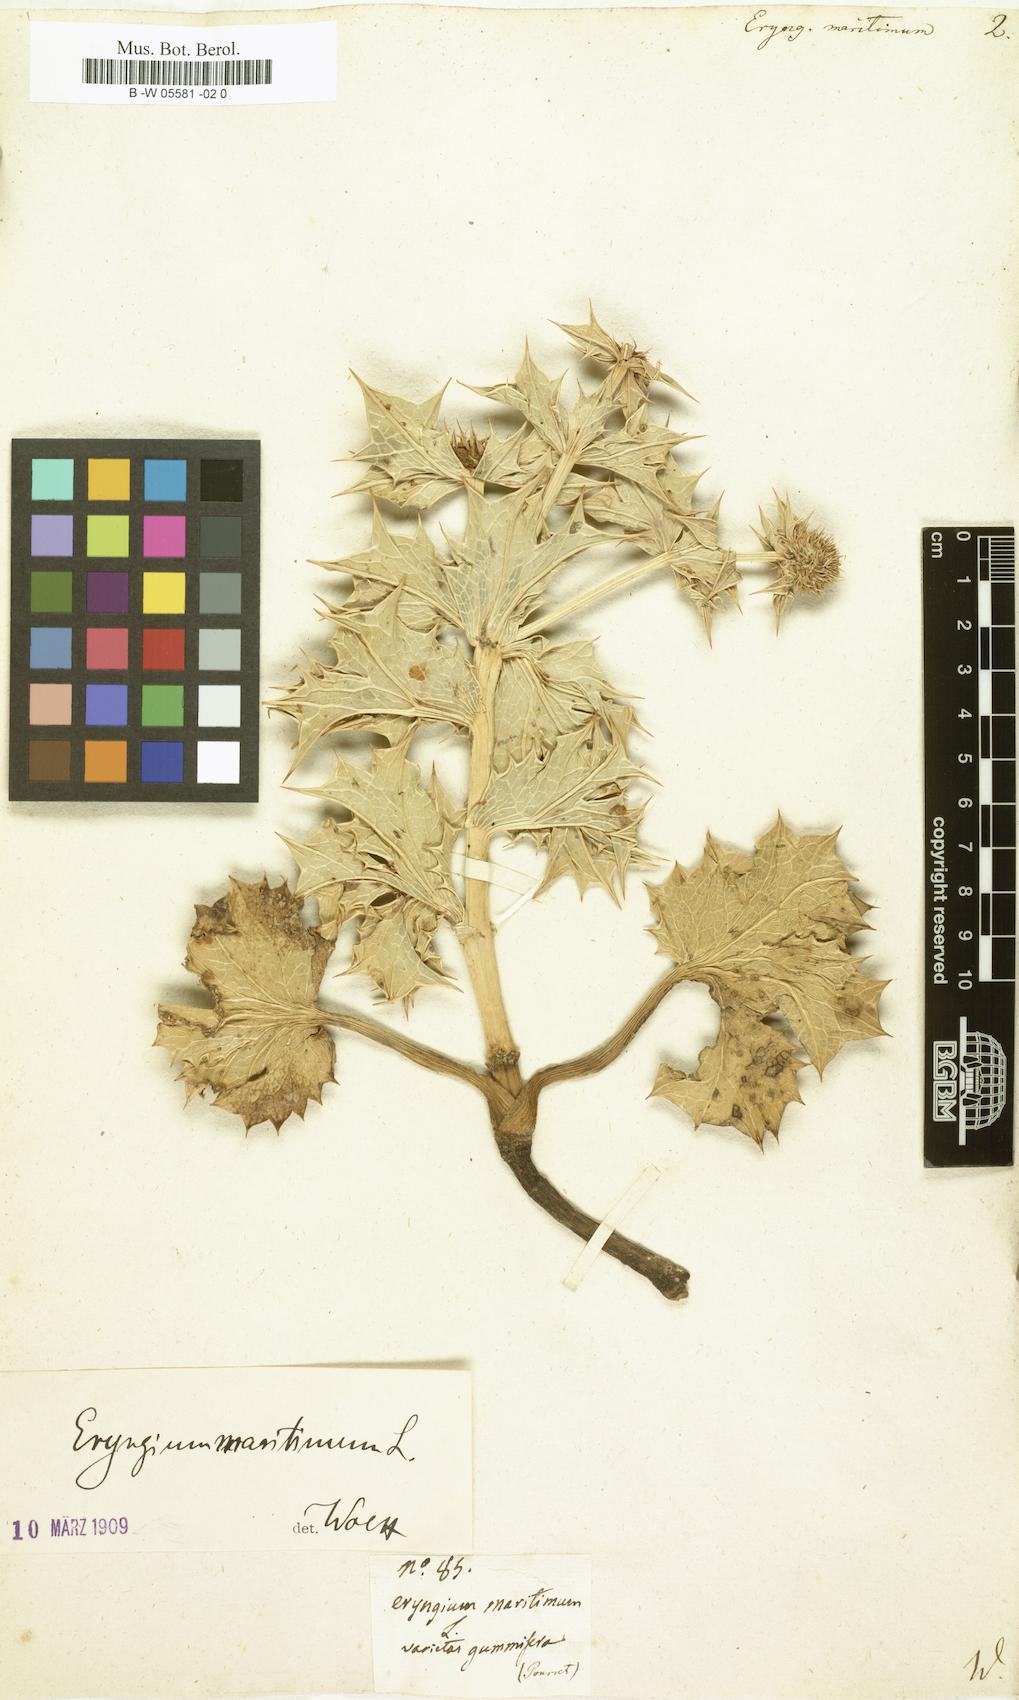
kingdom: Plantae
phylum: Tracheophyta
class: Magnoliopsida
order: Apiales
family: Apiaceae
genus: Eryngium
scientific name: Eryngium maritimum
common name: Sea-holly
